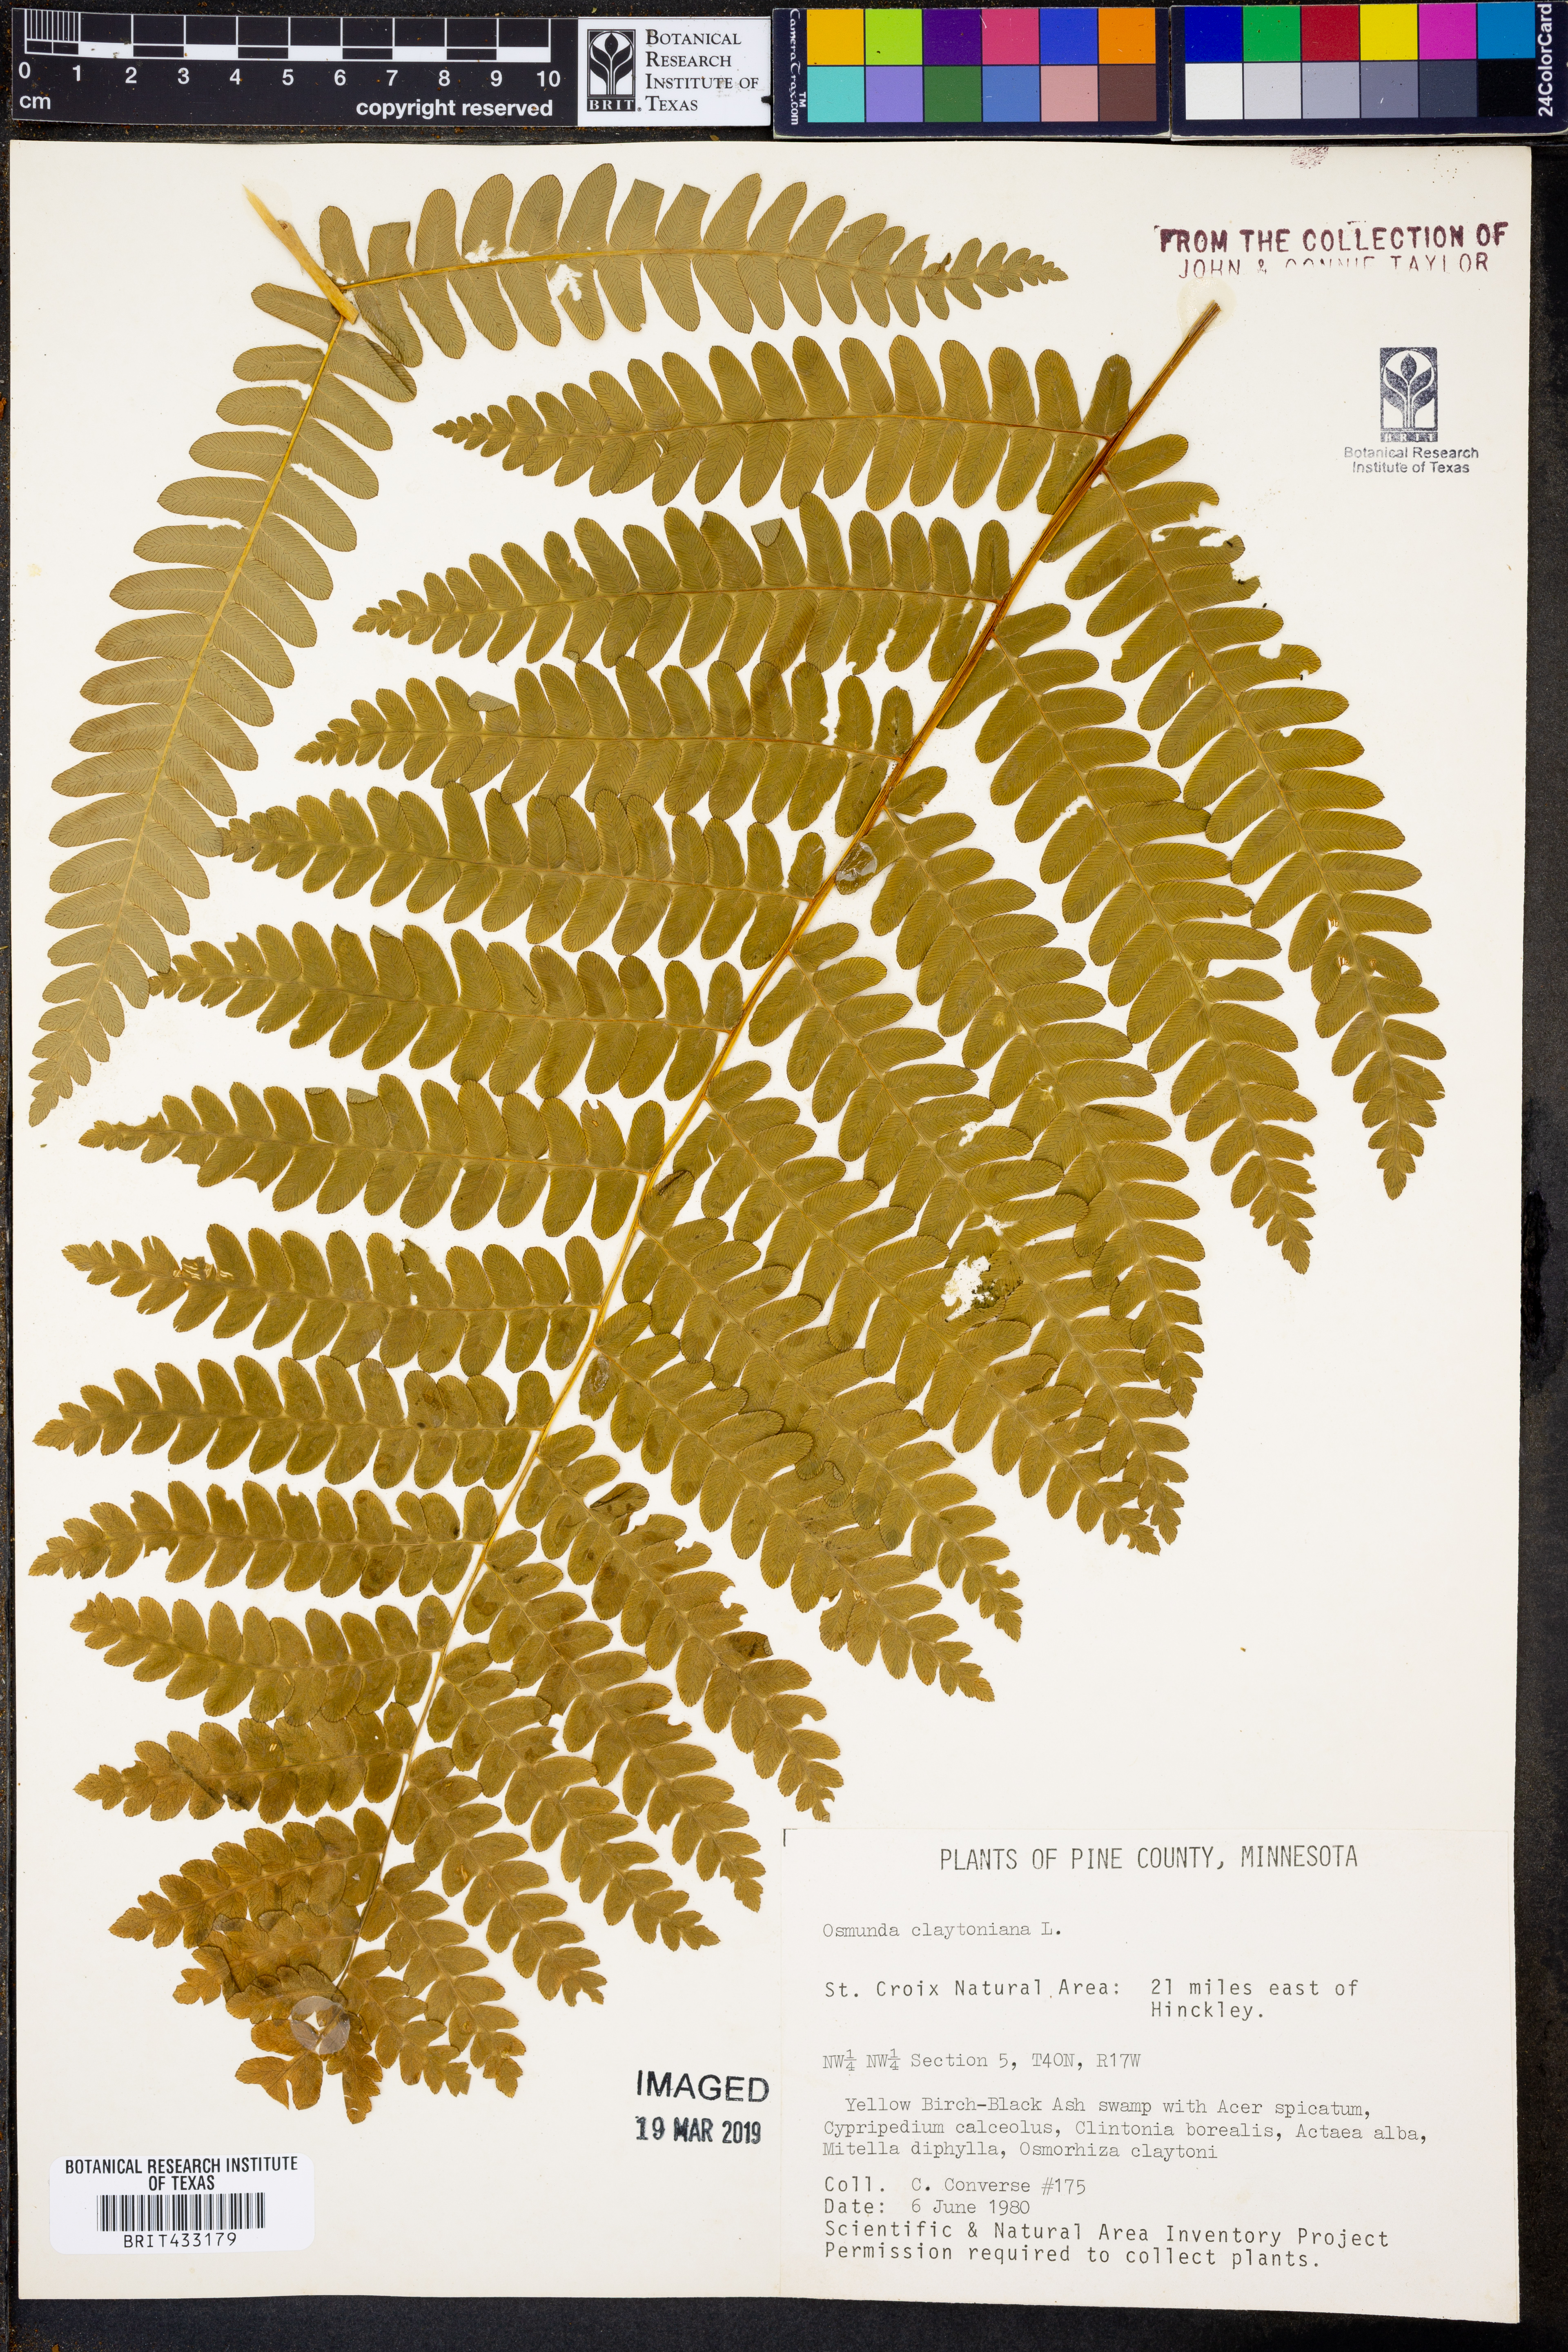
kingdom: Plantae
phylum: Tracheophyta
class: Polypodiopsida
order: Osmundales
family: Osmundaceae
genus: Claytosmunda
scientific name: Claytosmunda claytoniana
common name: Clayton's fern
